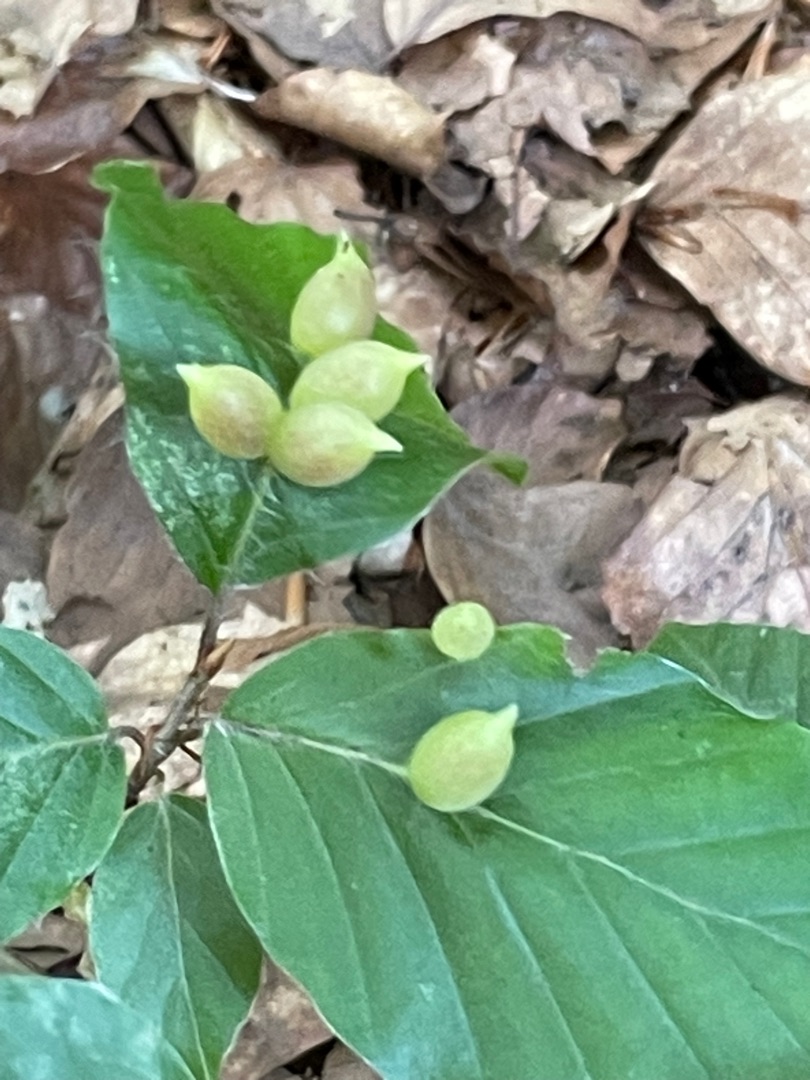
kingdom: Animalia
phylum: Arthropoda
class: Insecta
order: Diptera
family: Cecidomyiidae
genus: Mikiola
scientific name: Mikiola fagi
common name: Bøgegalmyg
